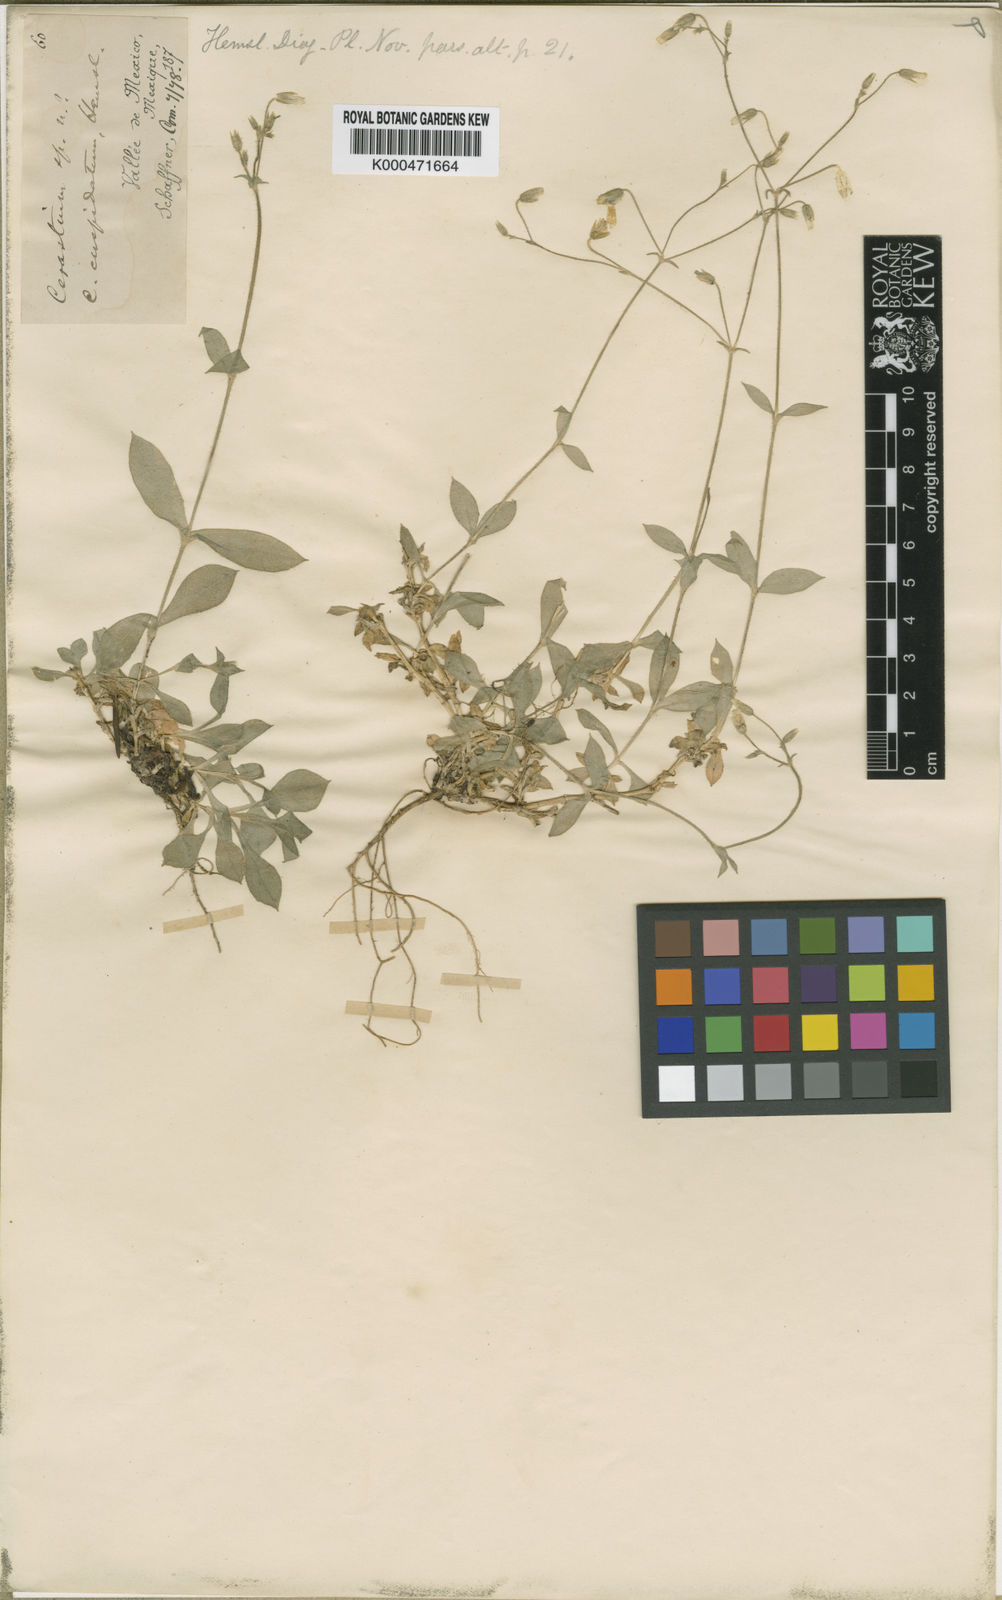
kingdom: Plantae
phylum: Tracheophyta
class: Magnoliopsida
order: Caryophyllales
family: Caryophyllaceae
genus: Cerastium
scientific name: Cerastium nutans
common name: Long-stalked chickweed
